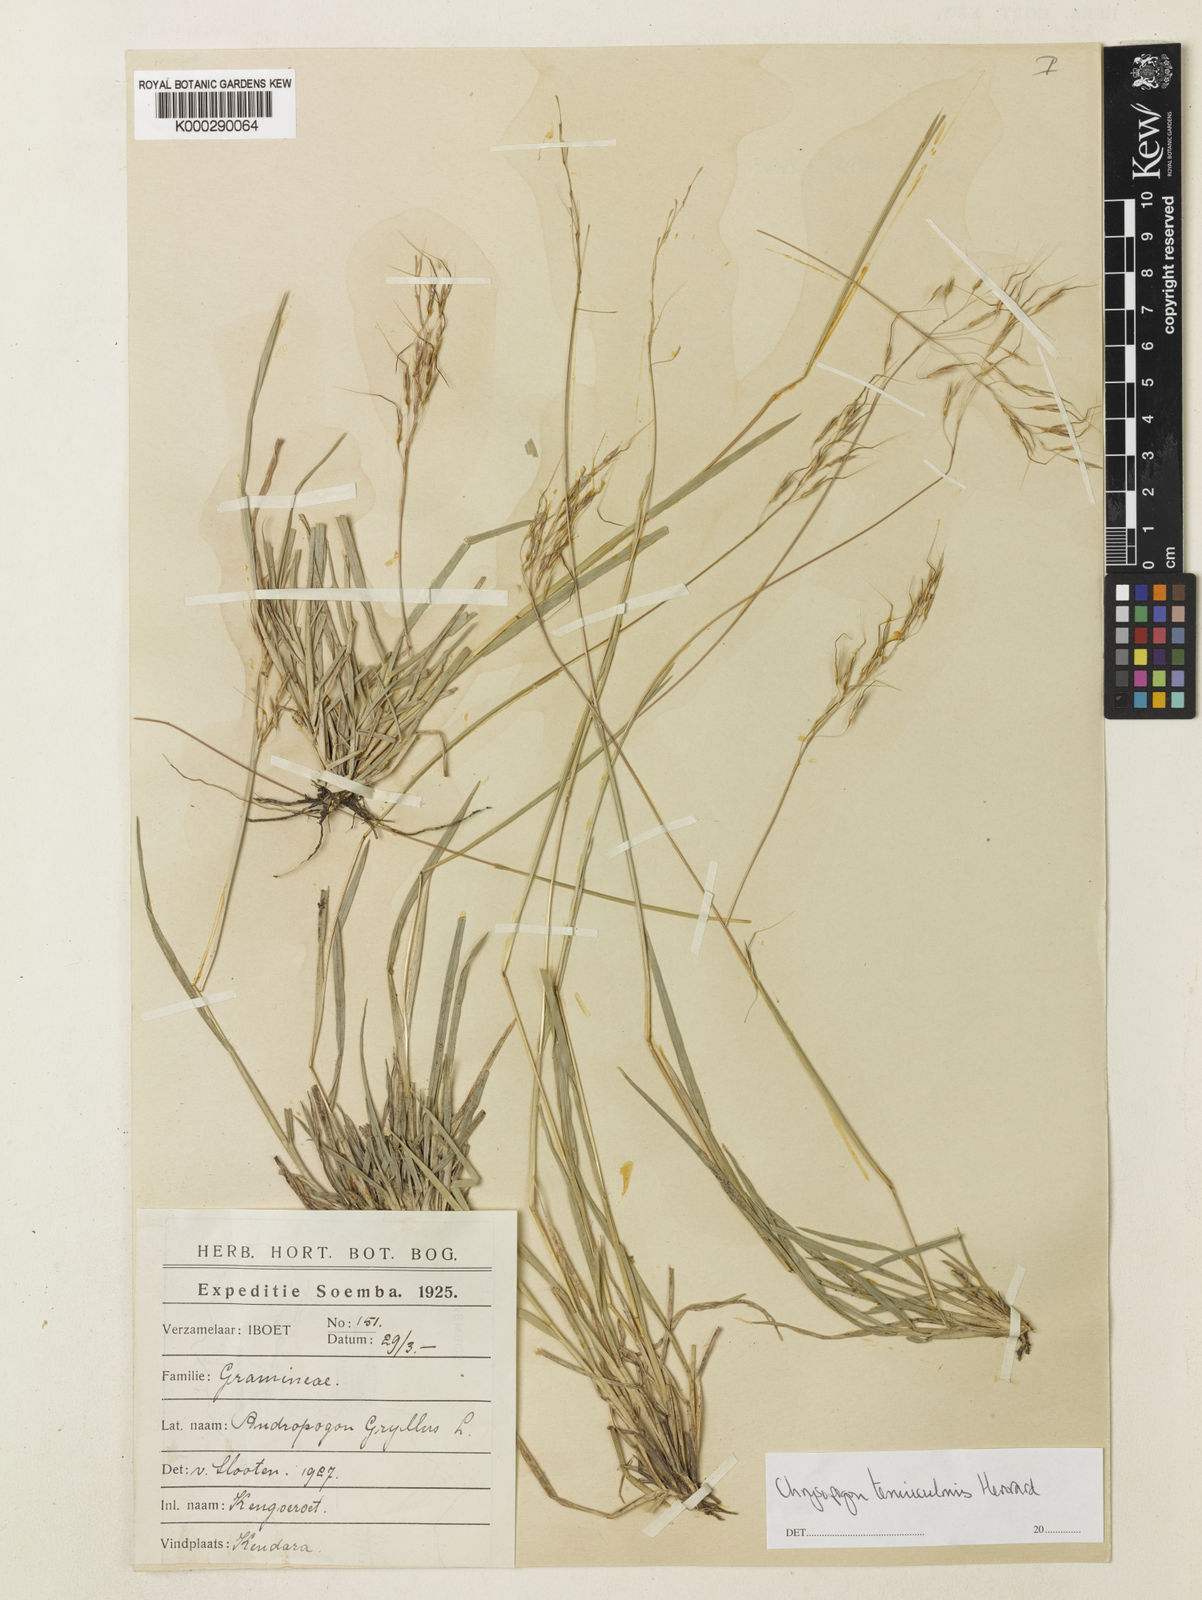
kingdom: Plantae
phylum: Tracheophyta
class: Liliopsida
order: Poales
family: Poaceae
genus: Chrysopogon
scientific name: Chrysopogon tenuiculmis
